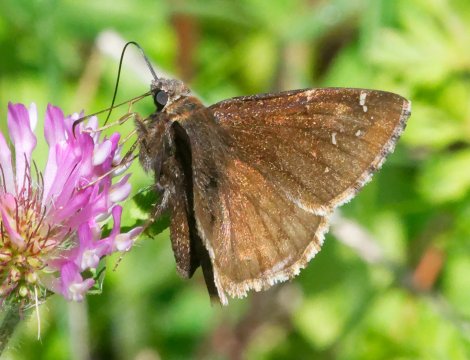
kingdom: Animalia
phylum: Arthropoda
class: Insecta
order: Lepidoptera
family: Hesperiidae
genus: Autochton
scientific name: Autochton
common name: Northern Cloudywing
